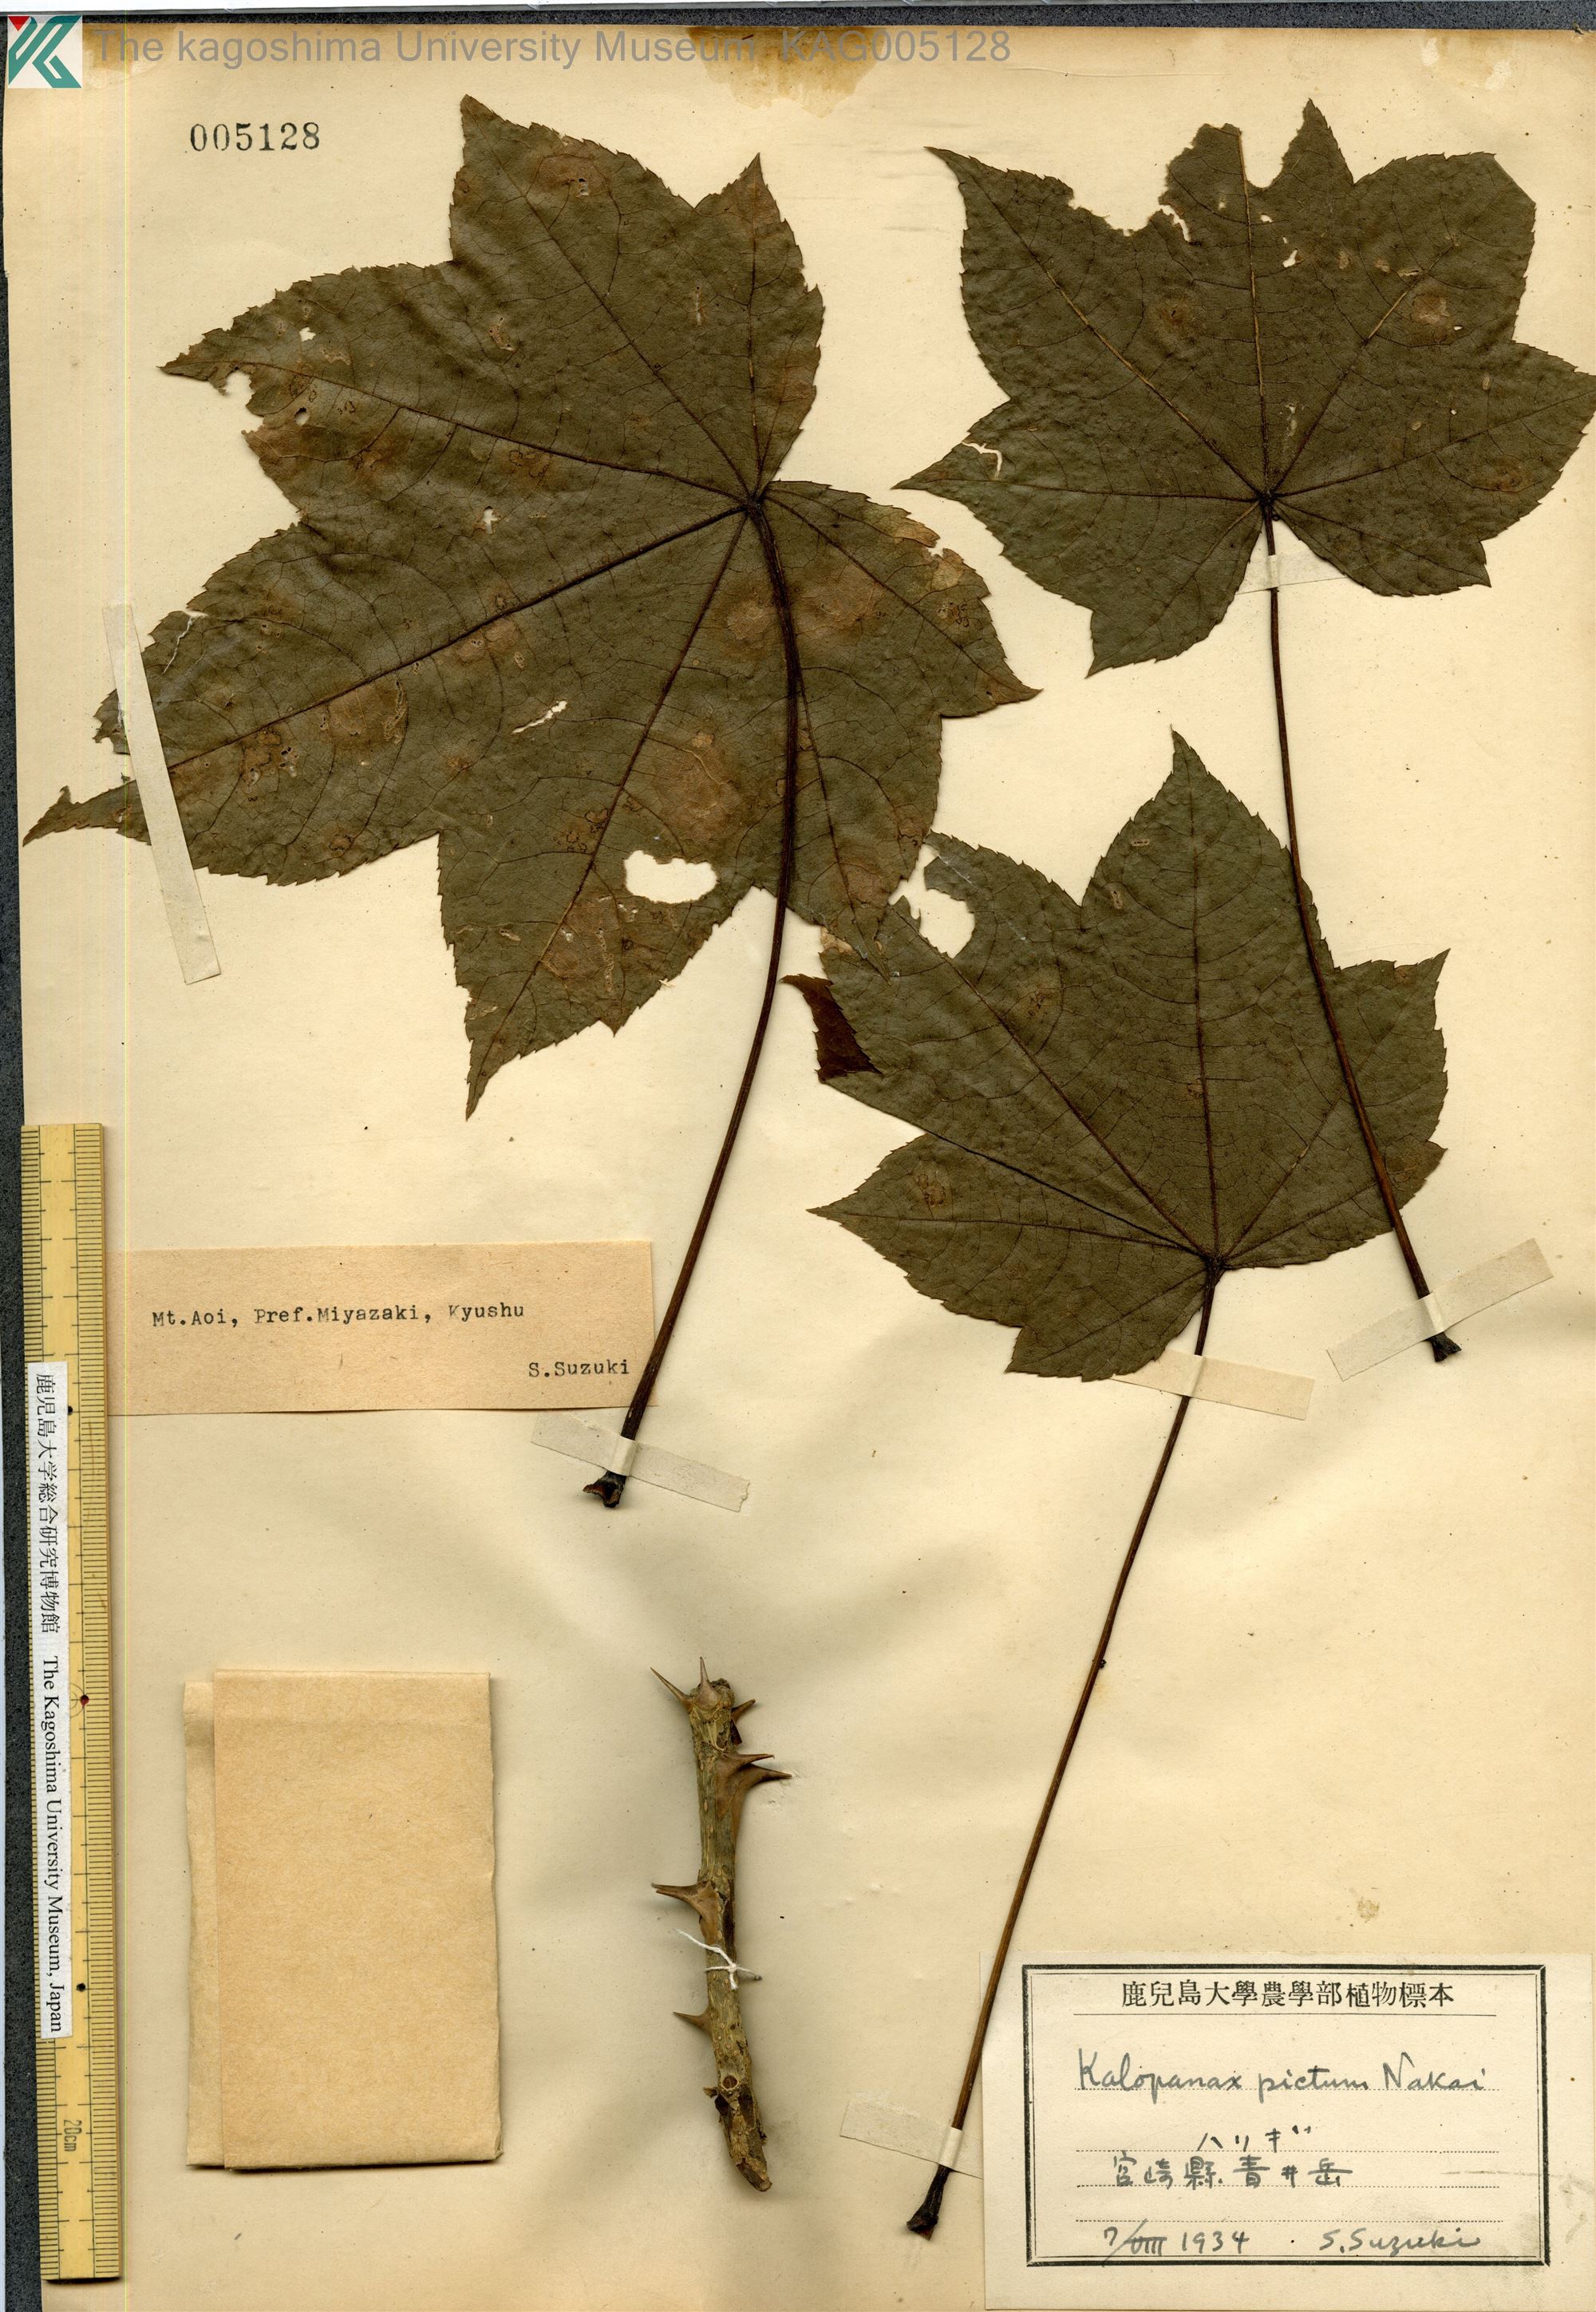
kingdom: Plantae
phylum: Tracheophyta
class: Magnoliopsida
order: Apiales
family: Araliaceae
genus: Kalopanax
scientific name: Kalopanax septemlobus
